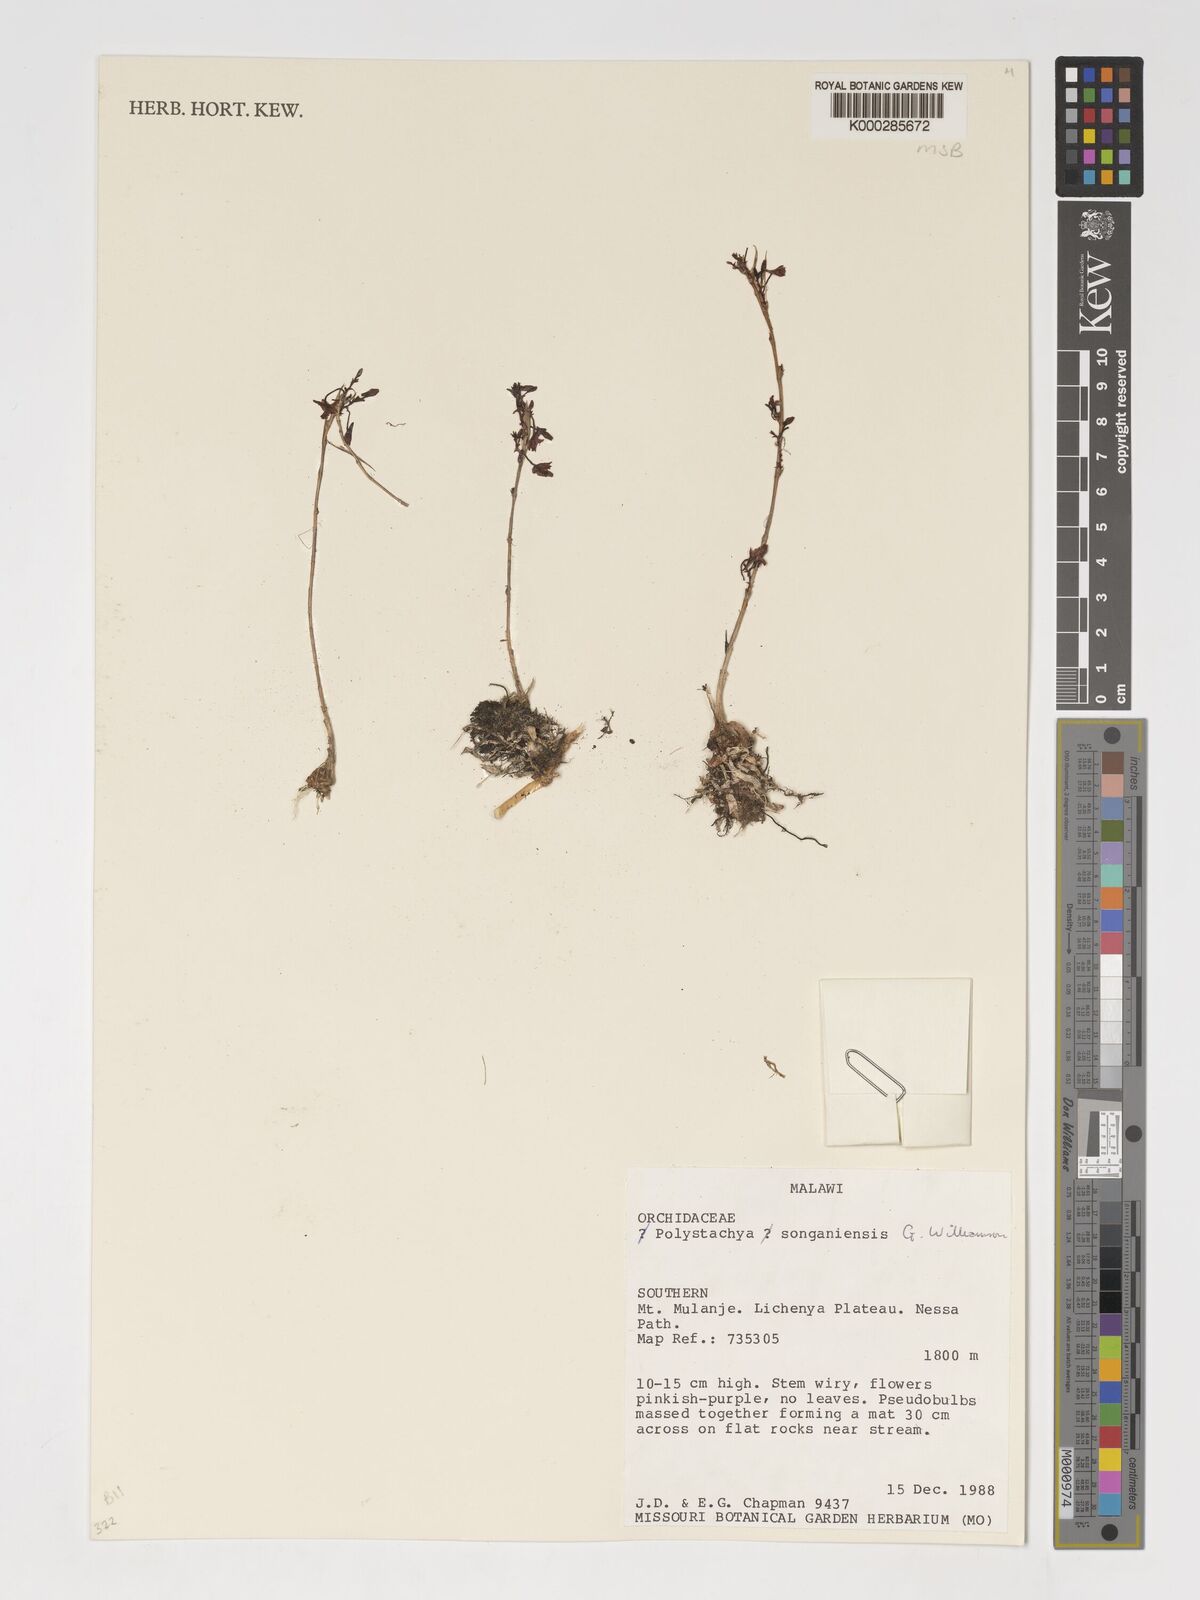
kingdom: Plantae
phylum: Tracheophyta
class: Liliopsida
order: Asparagales
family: Orchidaceae
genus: Polystachya
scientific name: Polystachya songaniensis
